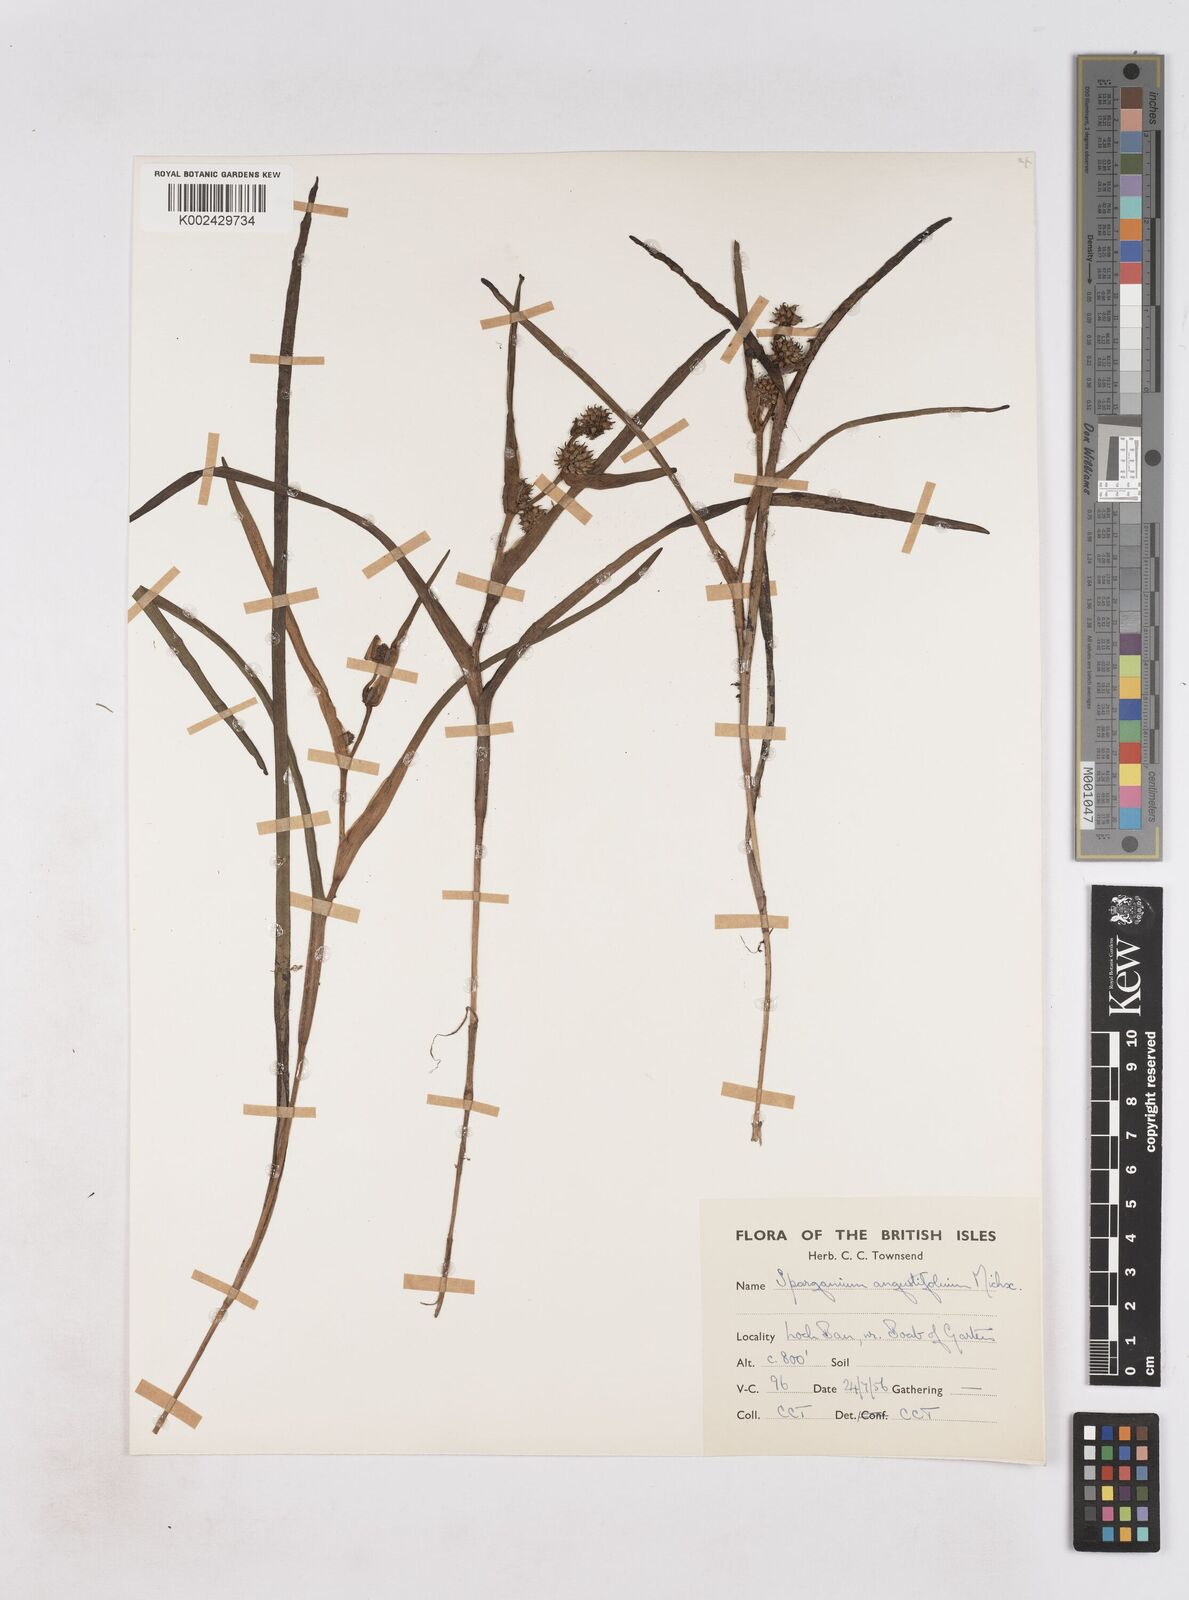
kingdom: Plantae
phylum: Tracheophyta
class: Liliopsida
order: Poales
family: Typhaceae
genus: Sparganium
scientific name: Sparganium angustifolium
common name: Floating bur-reed
